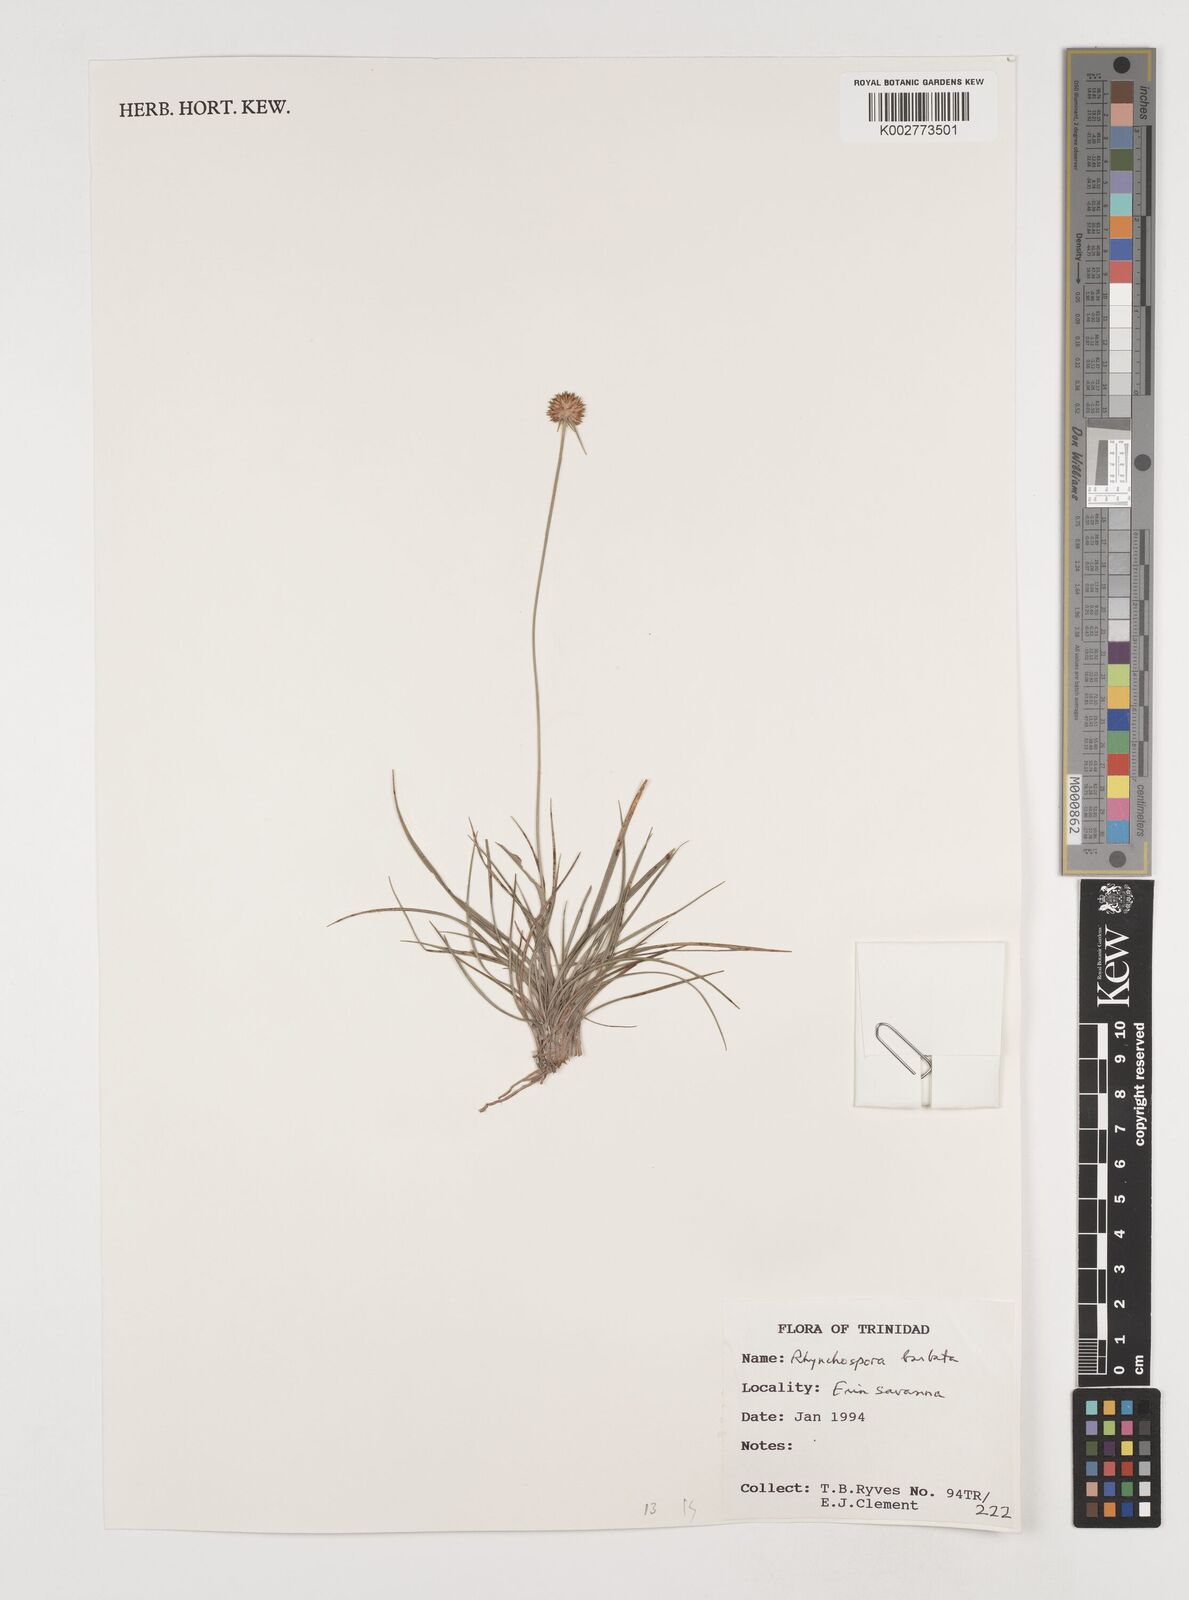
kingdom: Plantae
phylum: Tracheophyta
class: Liliopsida
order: Poales
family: Cyperaceae
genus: Rhynchospora
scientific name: Rhynchospora barbata
